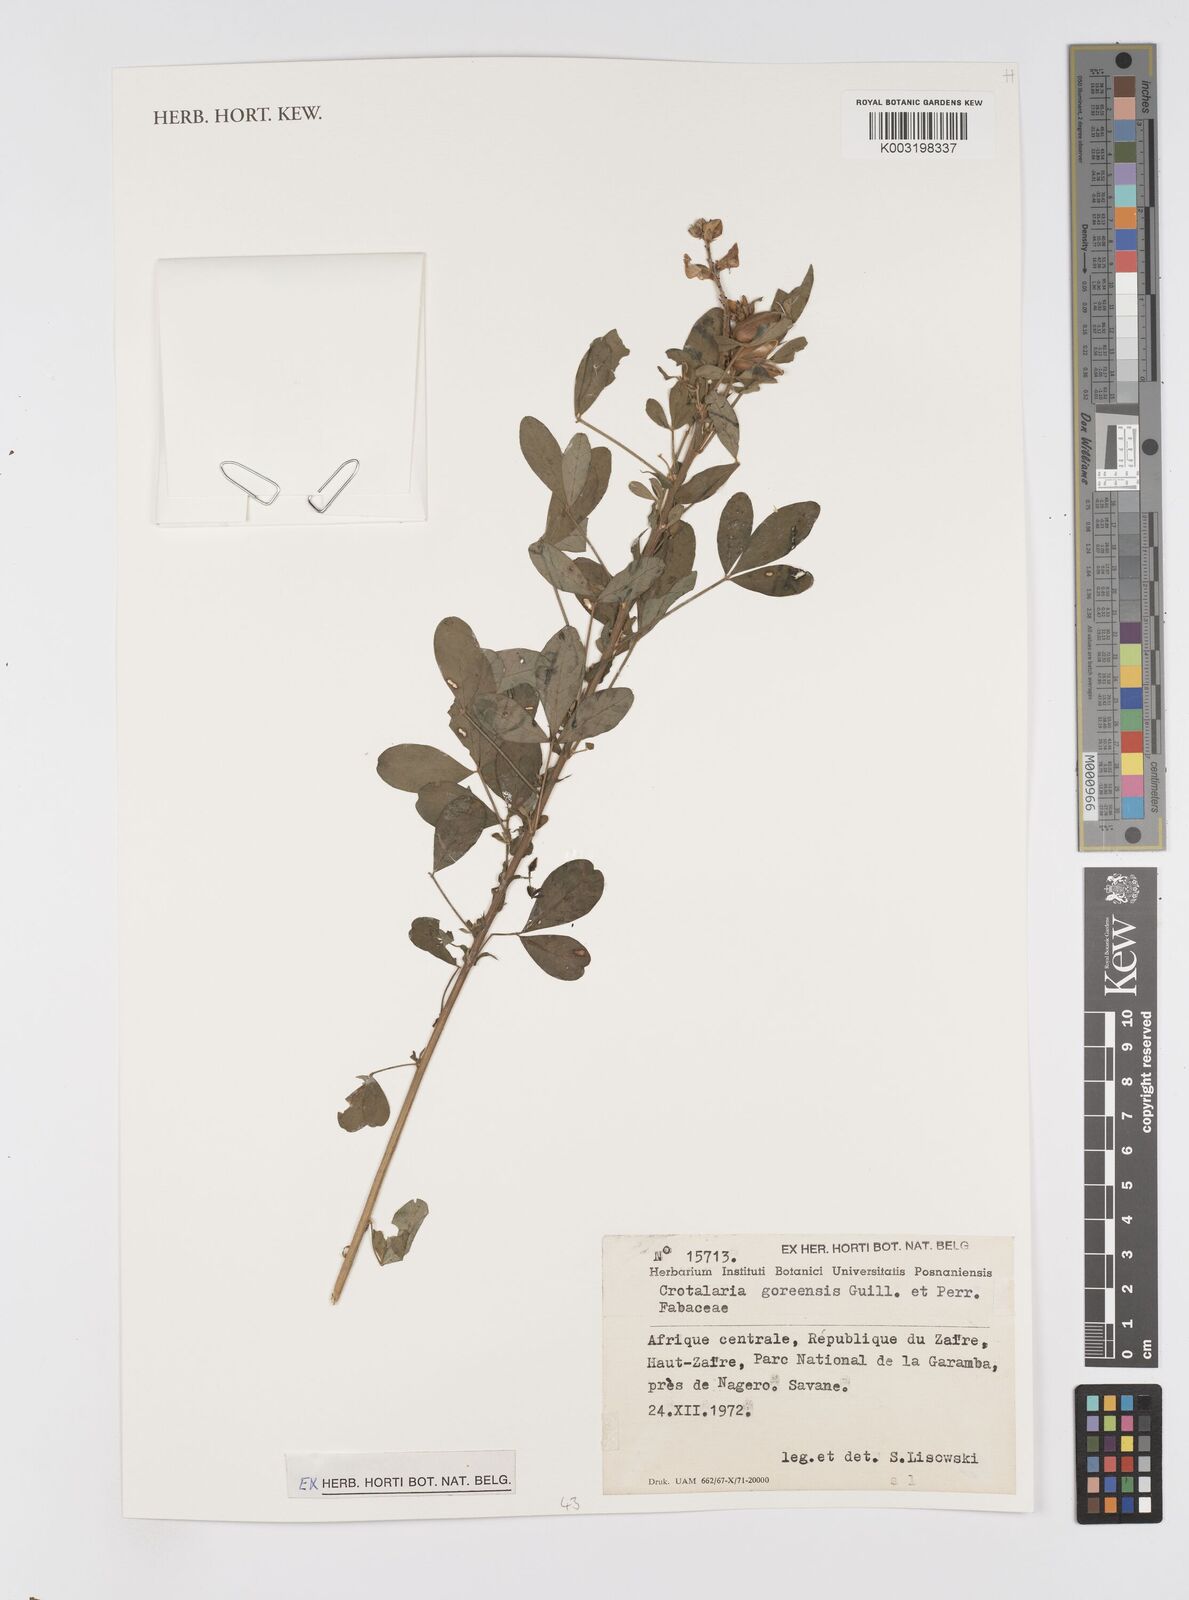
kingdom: Plantae
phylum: Tracheophyta
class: Magnoliopsida
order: Fabales
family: Fabaceae
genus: Crotalaria
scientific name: Crotalaria goreensis
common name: Gambia-pea
